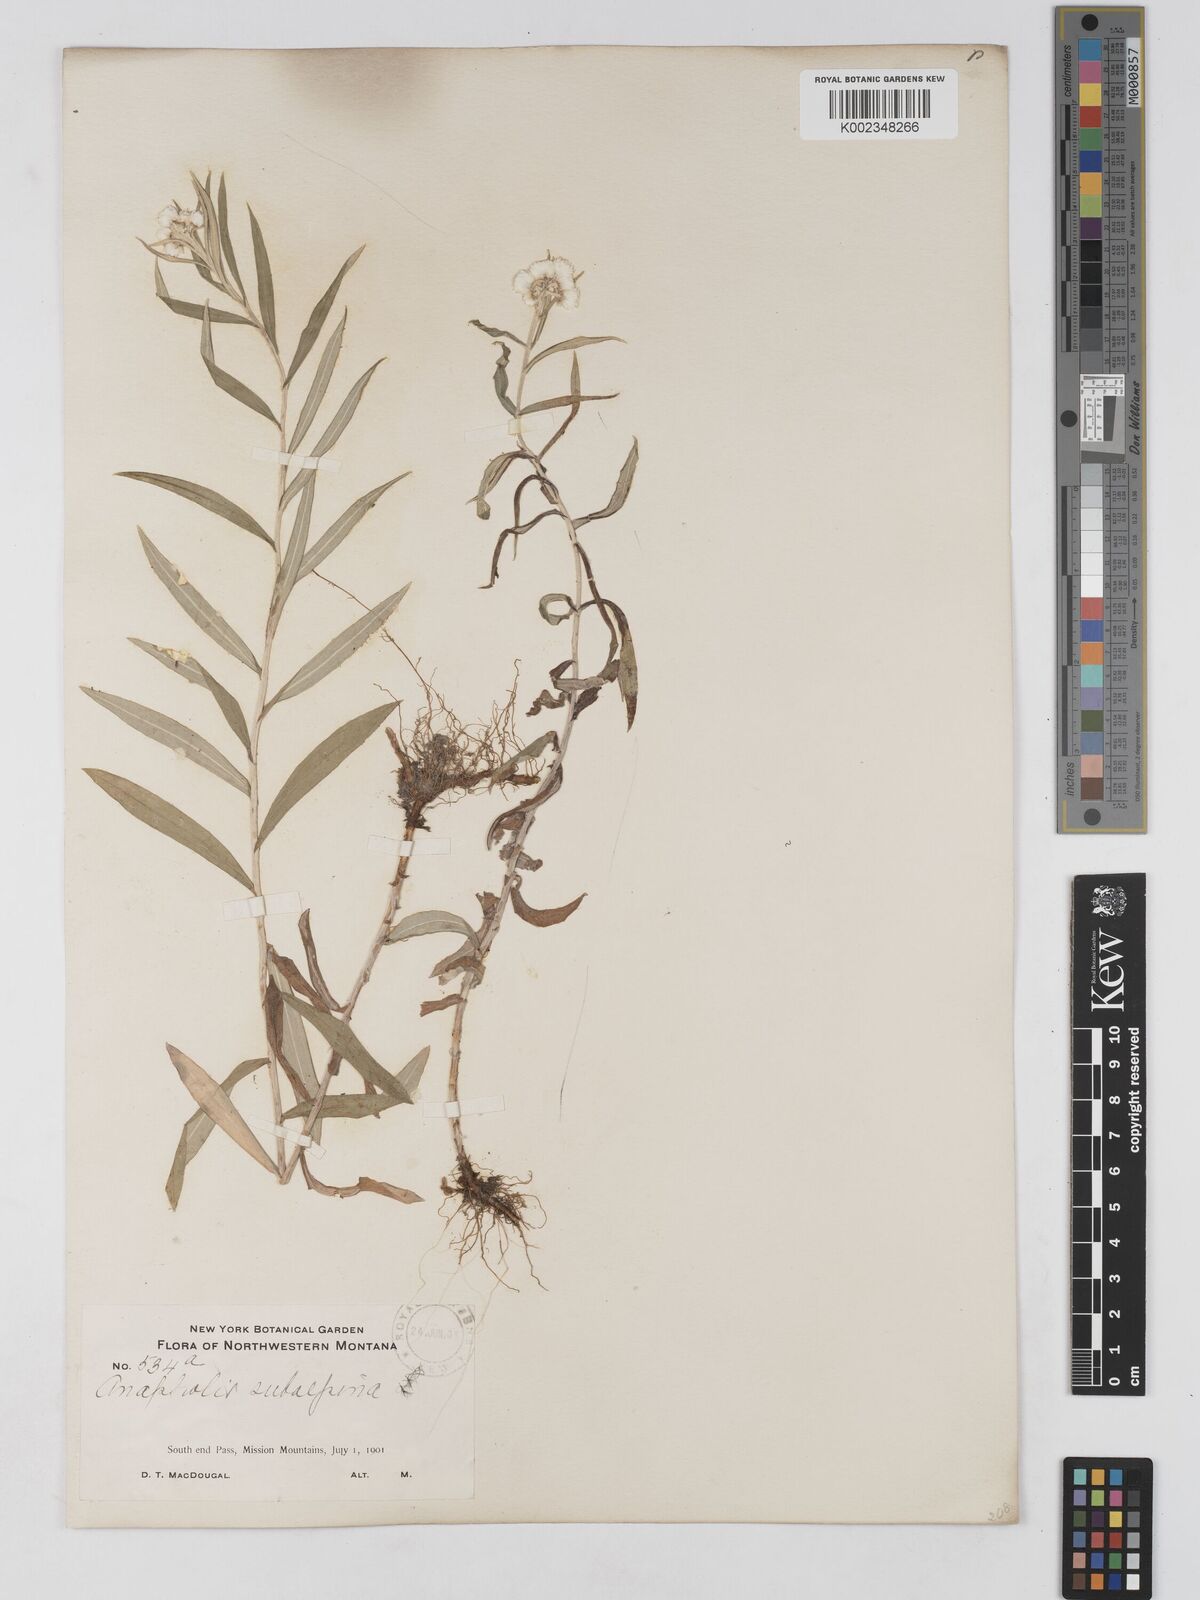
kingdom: Plantae
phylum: Tracheophyta
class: Magnoliopsida
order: Asterales
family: Asteraceae
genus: Anaphalis
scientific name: Anaphalis margaritacea
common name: Pearly everlasting
